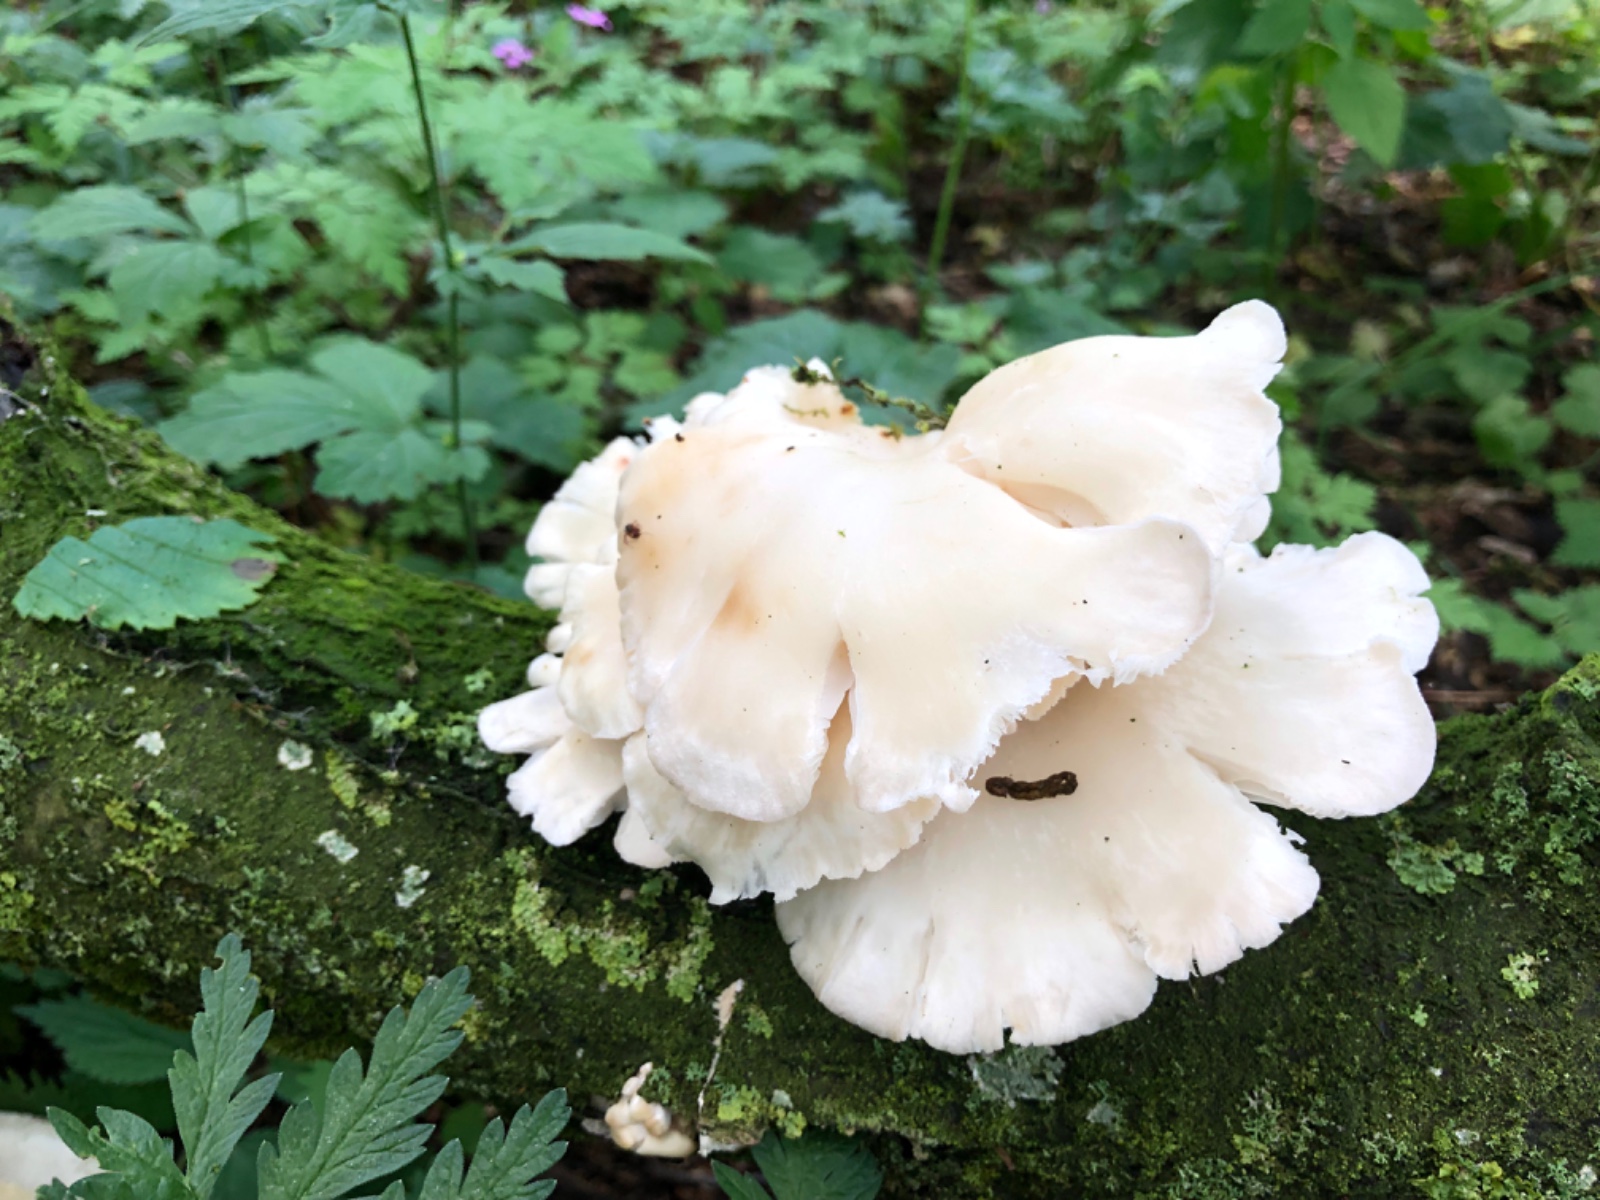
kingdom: Fungi
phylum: Basidiomycota
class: Agaricomycetes
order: Agaricales
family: Pleurotaceae
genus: Pleurotus
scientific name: Pleurotus pulmonarius
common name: sommer-østershat
